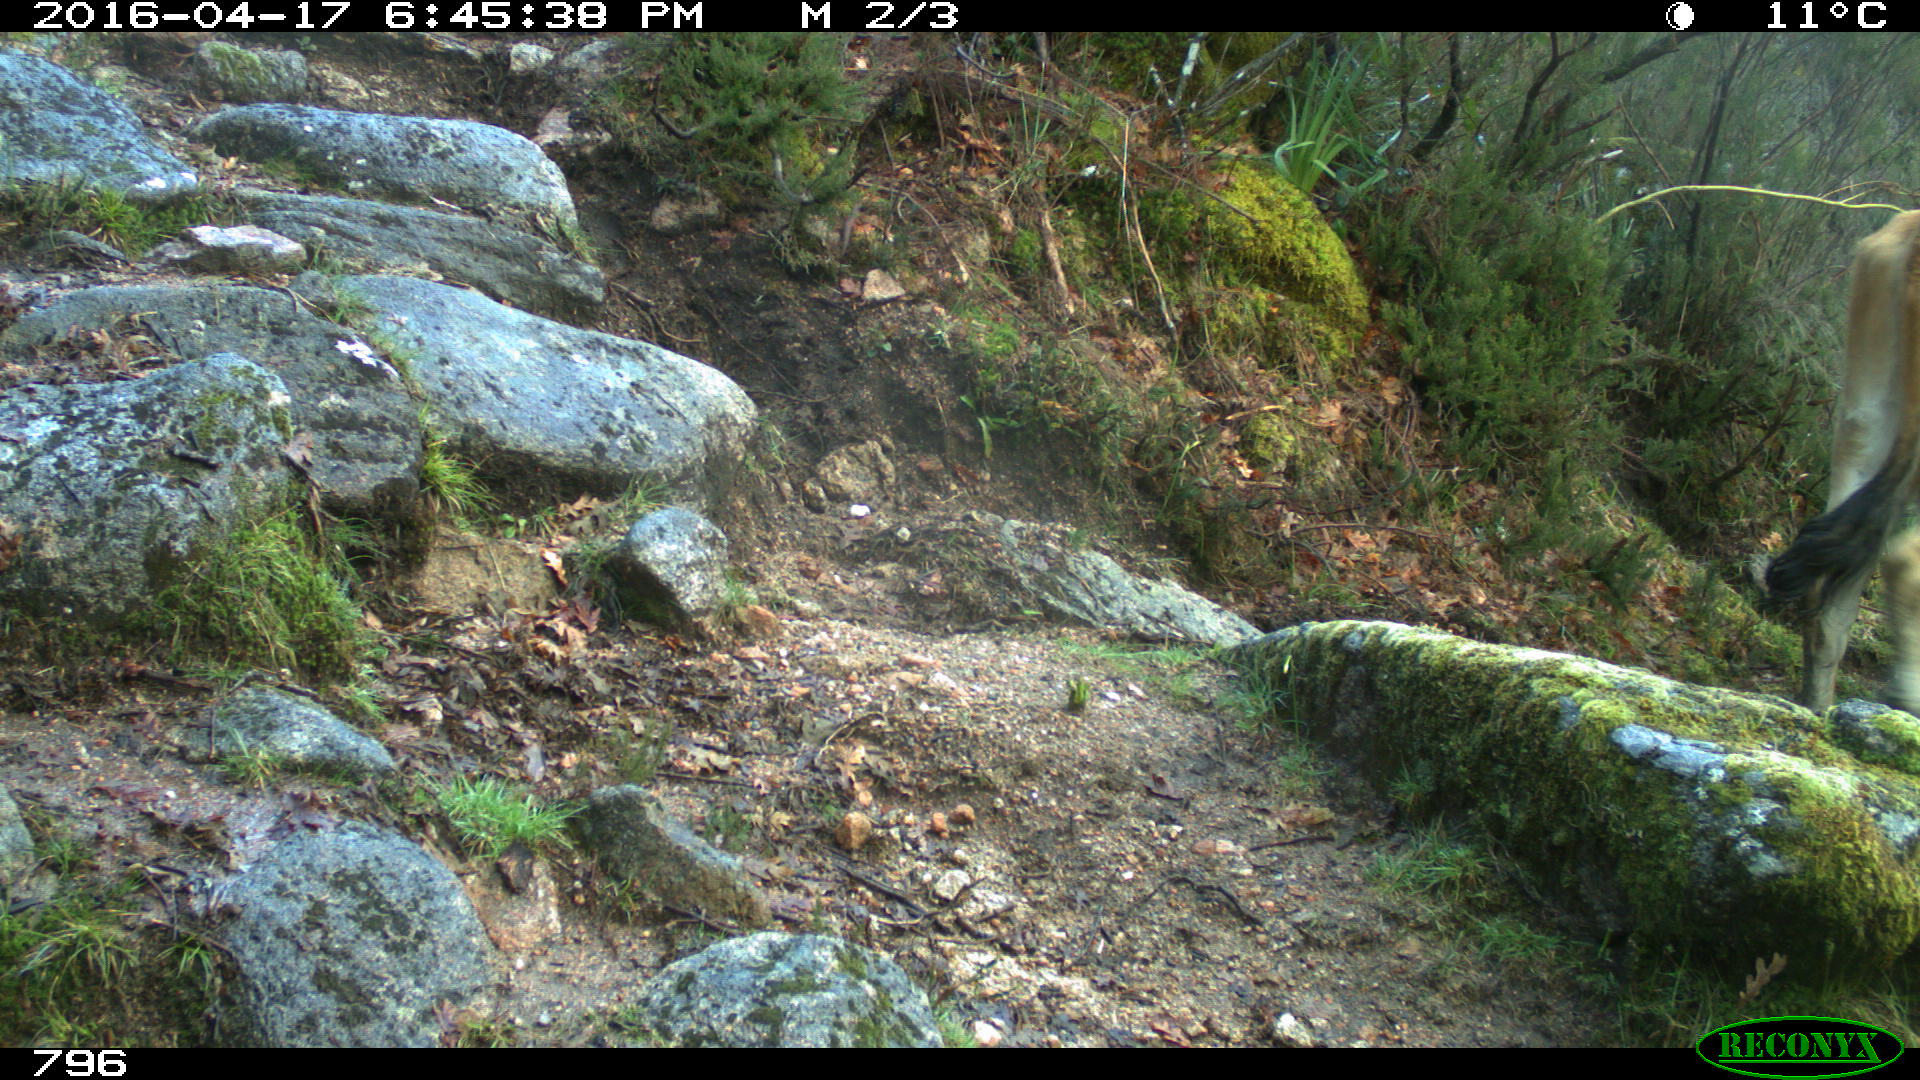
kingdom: Animalia
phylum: Chordata
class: Mammalia
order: Artiodactyla
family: Bovidae
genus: Bos
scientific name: Bos taurus
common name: Domesticated cattle
